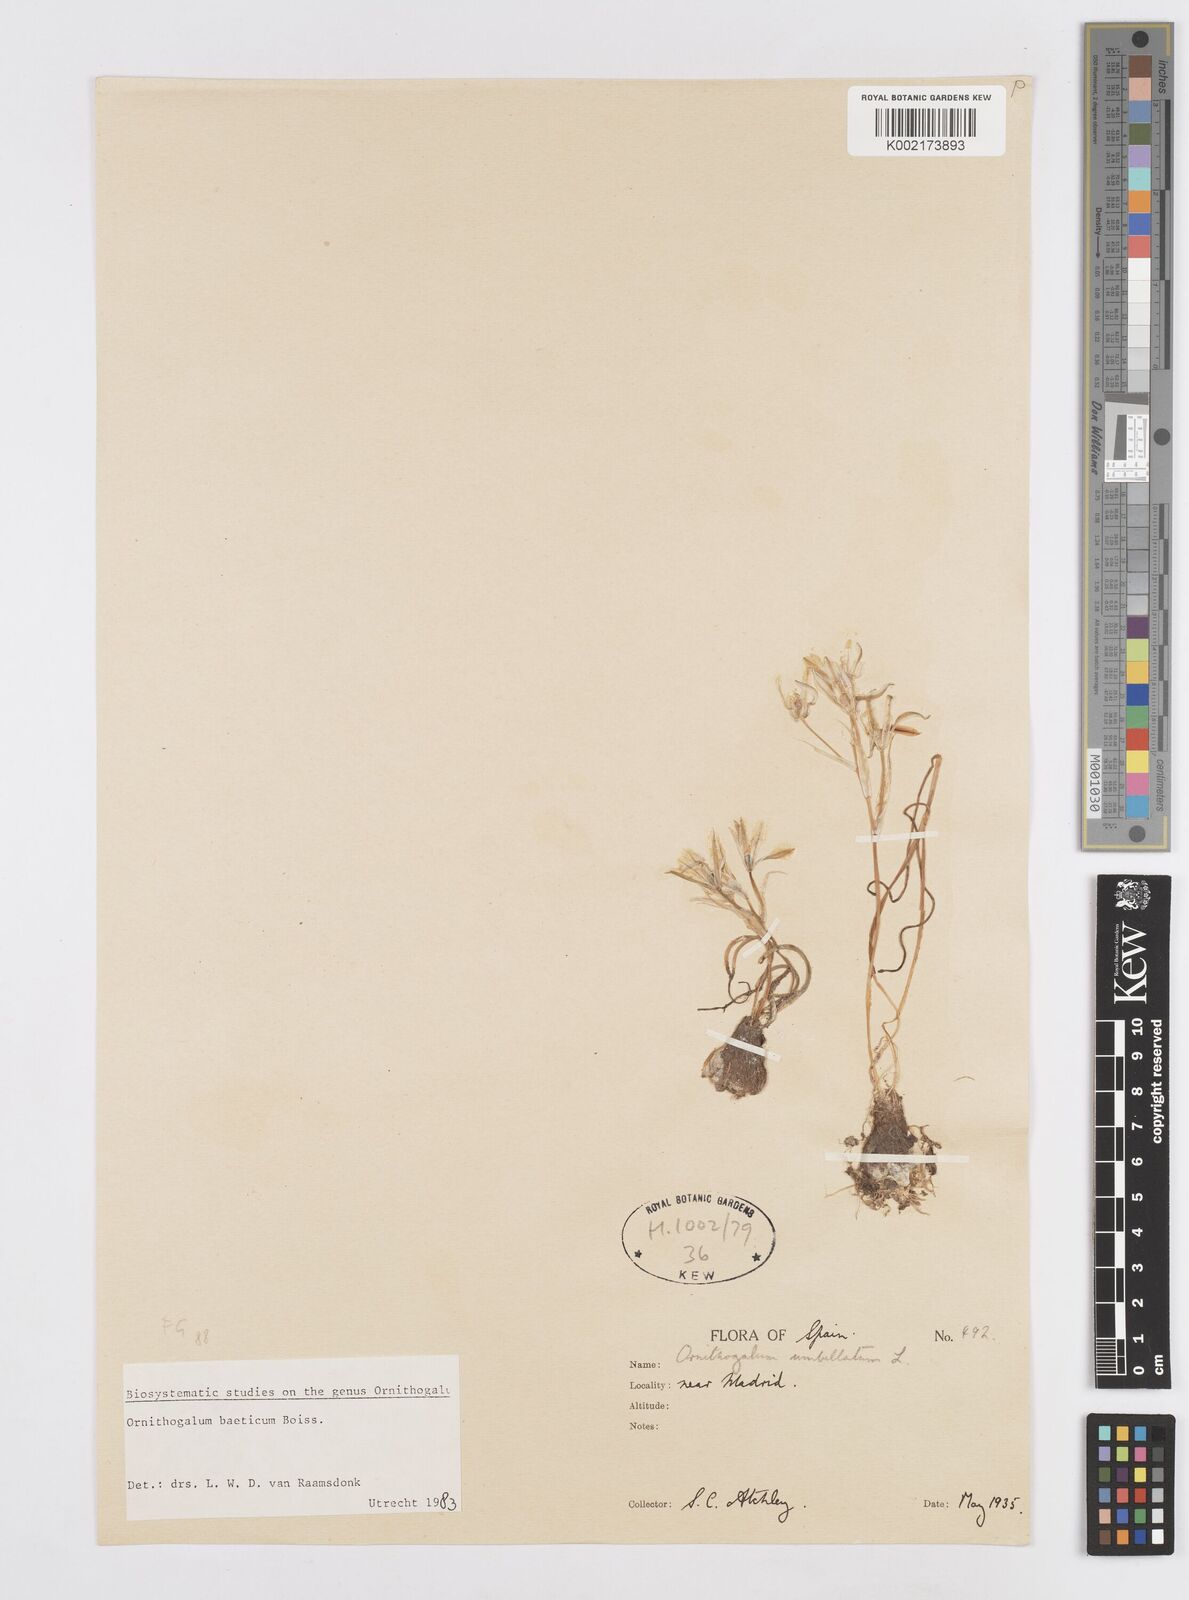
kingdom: Plantae
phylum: Tracheophyta
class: Liliopsida
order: Asparagales
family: Asparagaceae
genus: Ornithogalum
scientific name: Ornithogalum orthophyllum
